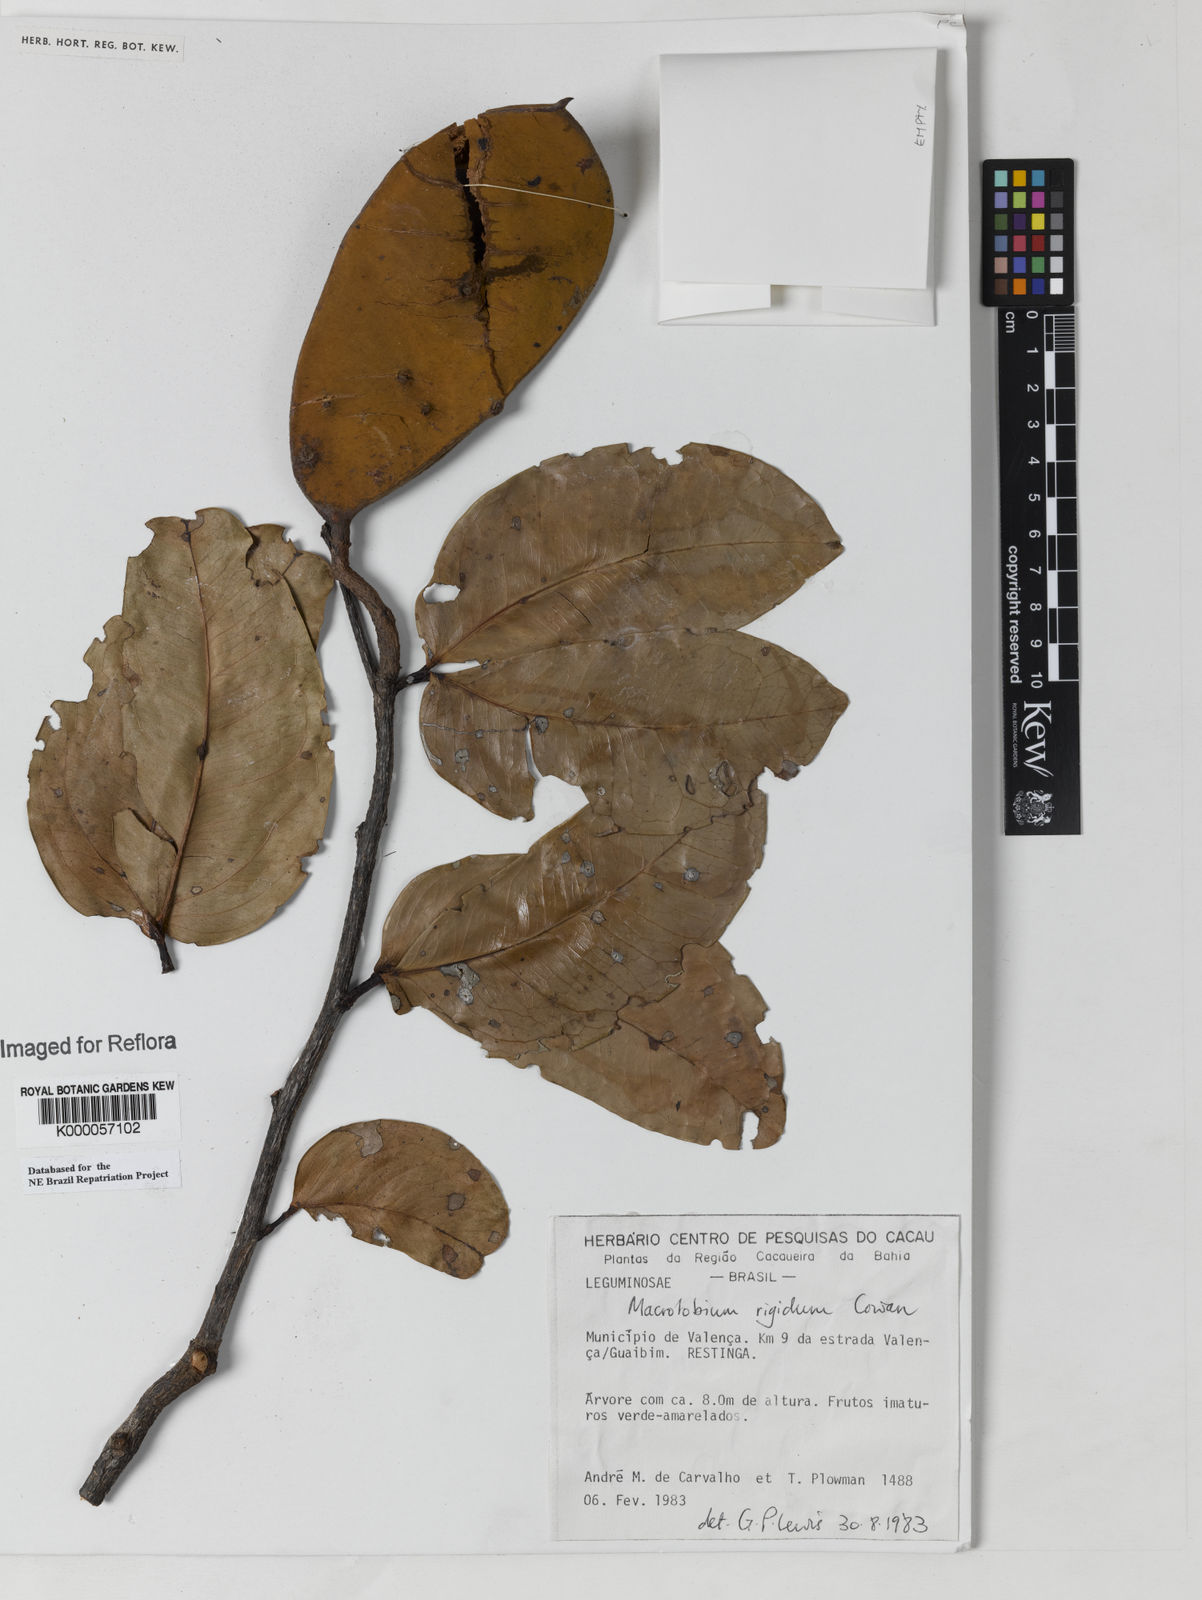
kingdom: Plantae
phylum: Tracheophyta
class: Magnoliopsida
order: Fabales
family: Fabaceae
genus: Macrolobium
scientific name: Macrolobium rigidum
